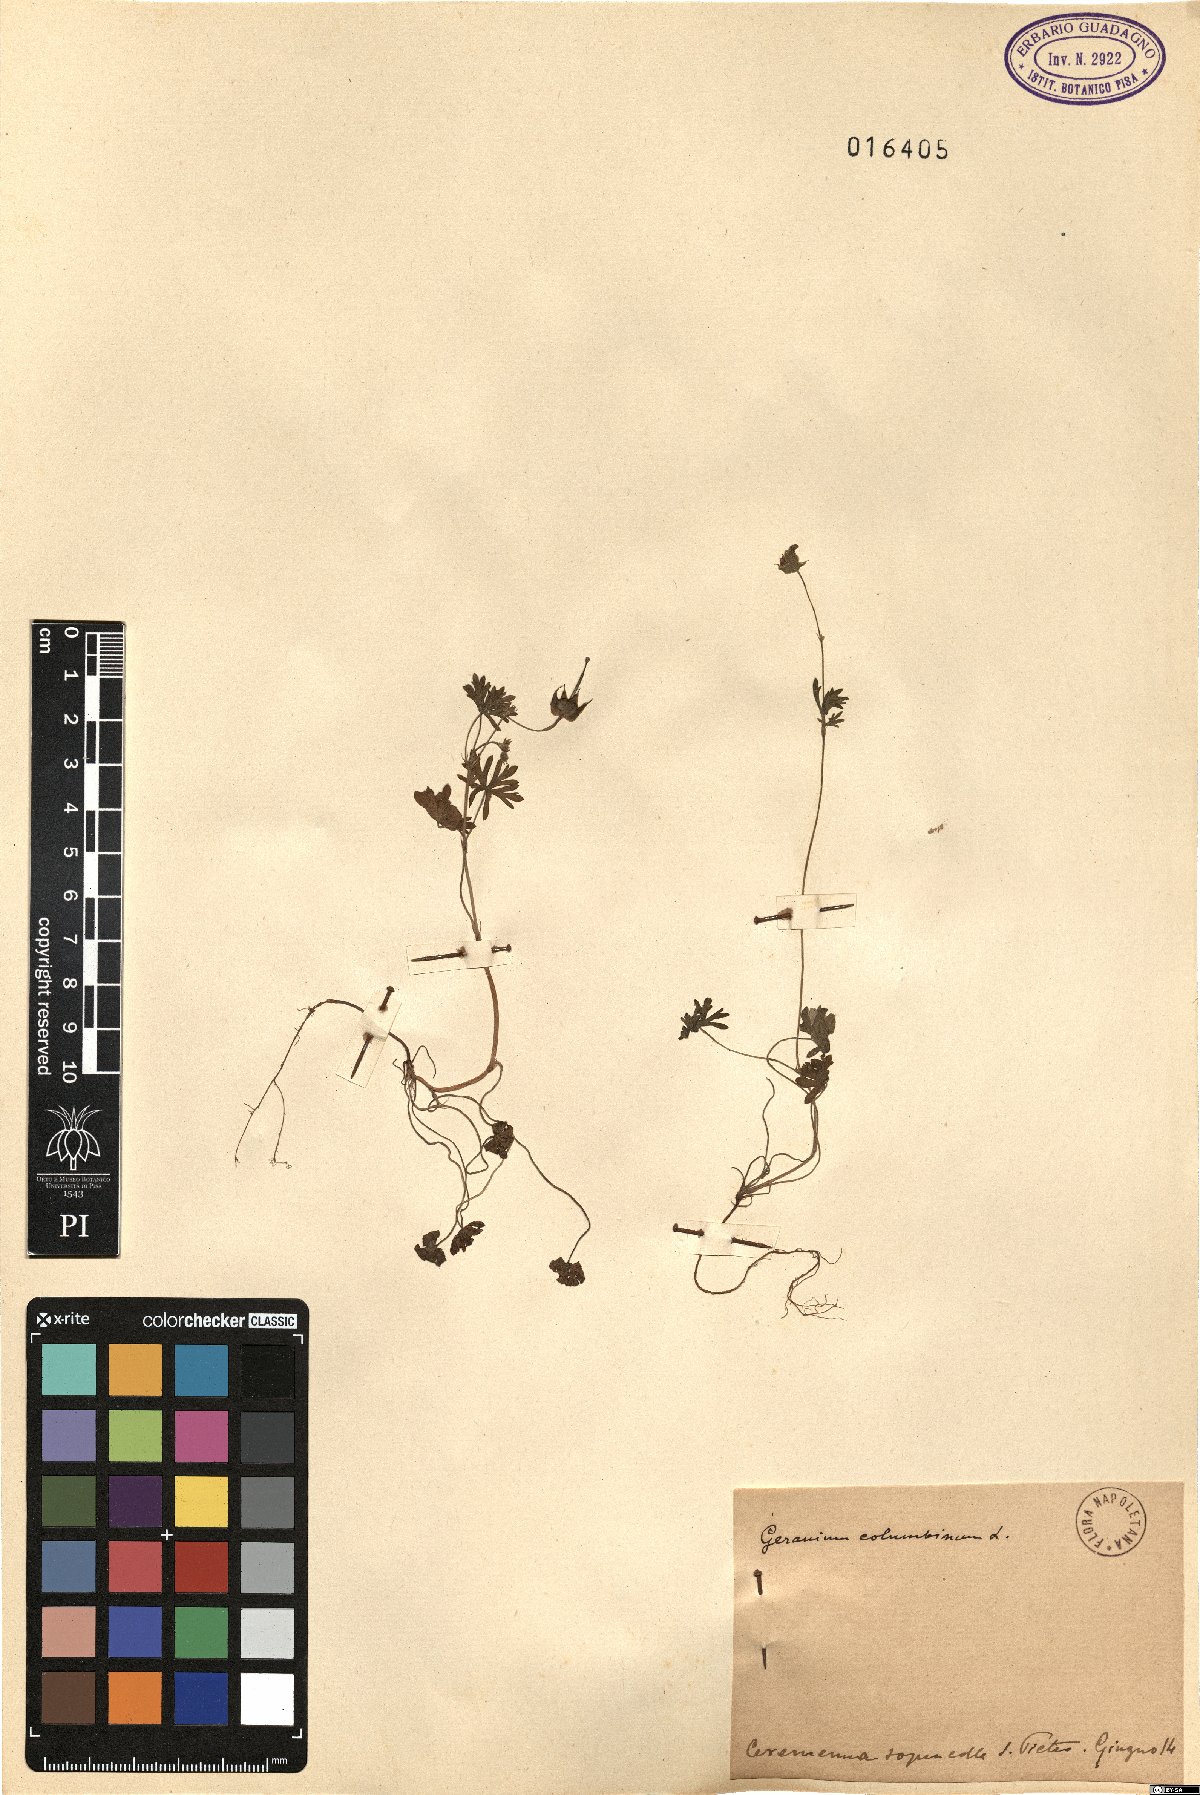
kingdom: Plantae
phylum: Tracheophyta
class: Magnoliopsida
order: Geraniales
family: Geraniaceae
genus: Geranium
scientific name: Geranium columbinum
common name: Long-stalked crane's-bill
